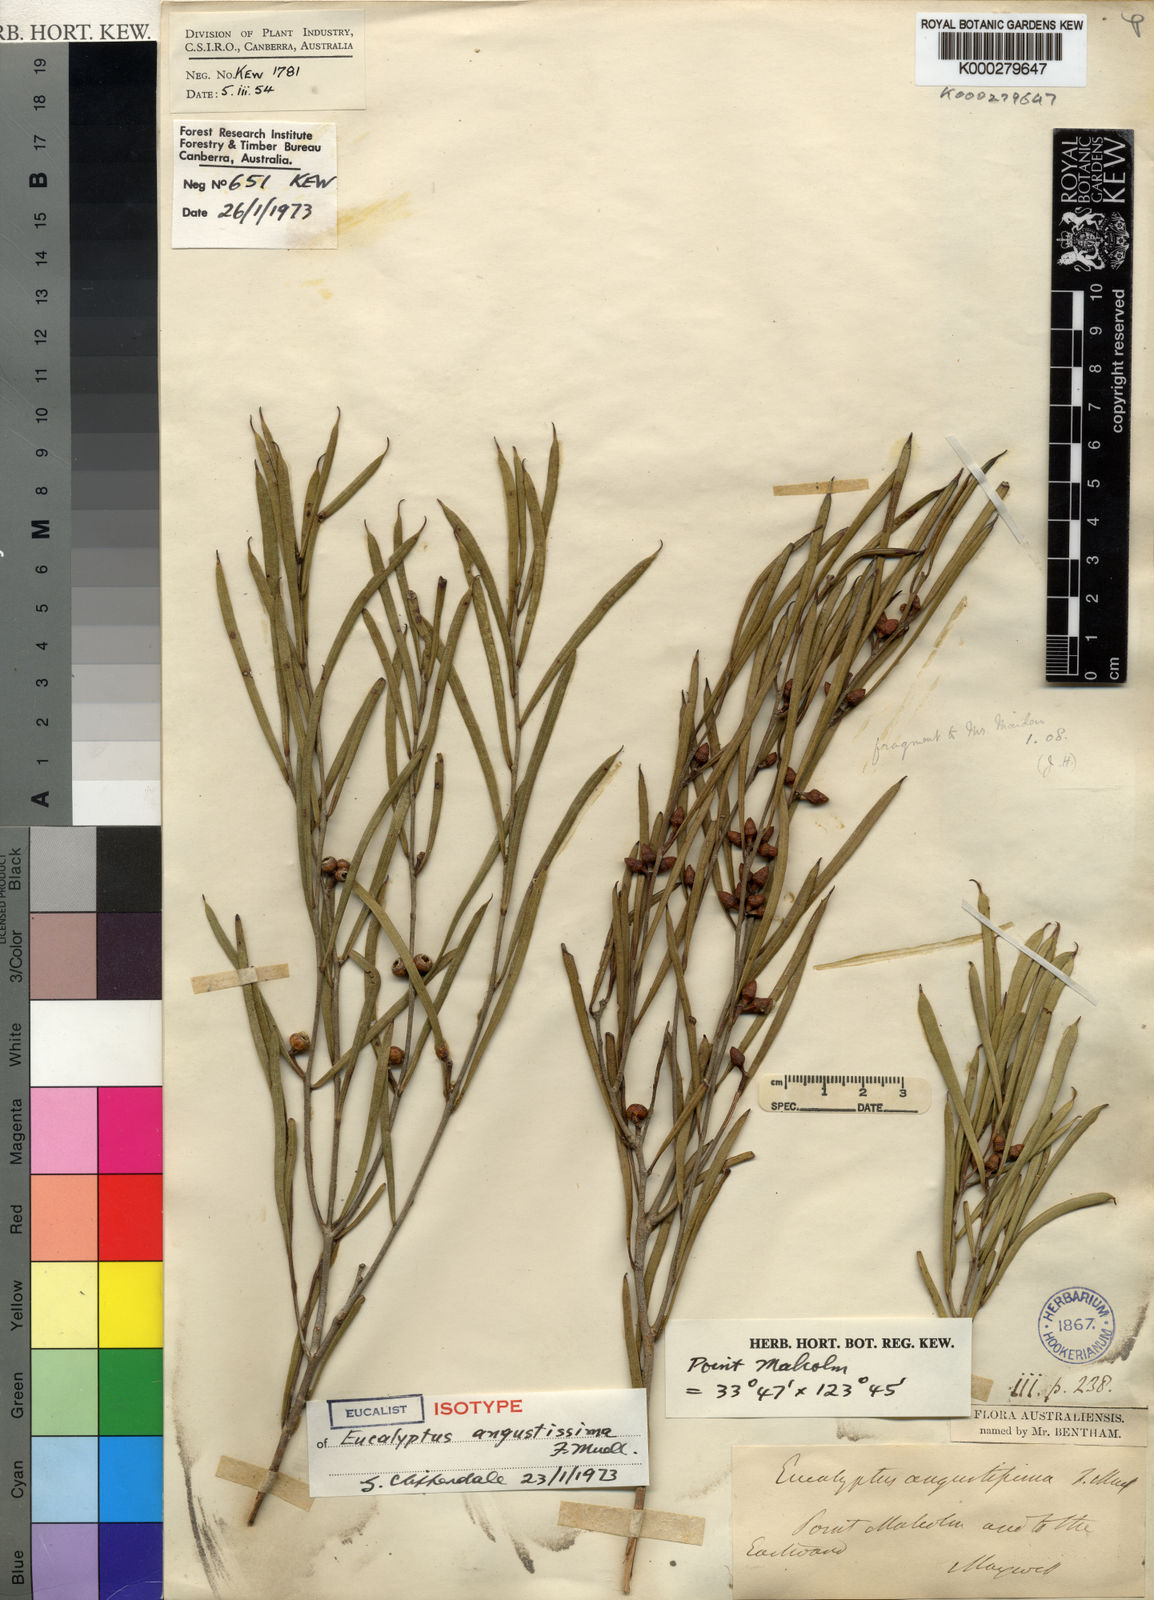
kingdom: Plantae
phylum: Tracheophyta
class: Magnoliopsida
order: Myrtales
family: Myrtaceae
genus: Eucalyptus
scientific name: Eucalyptus angustissima
